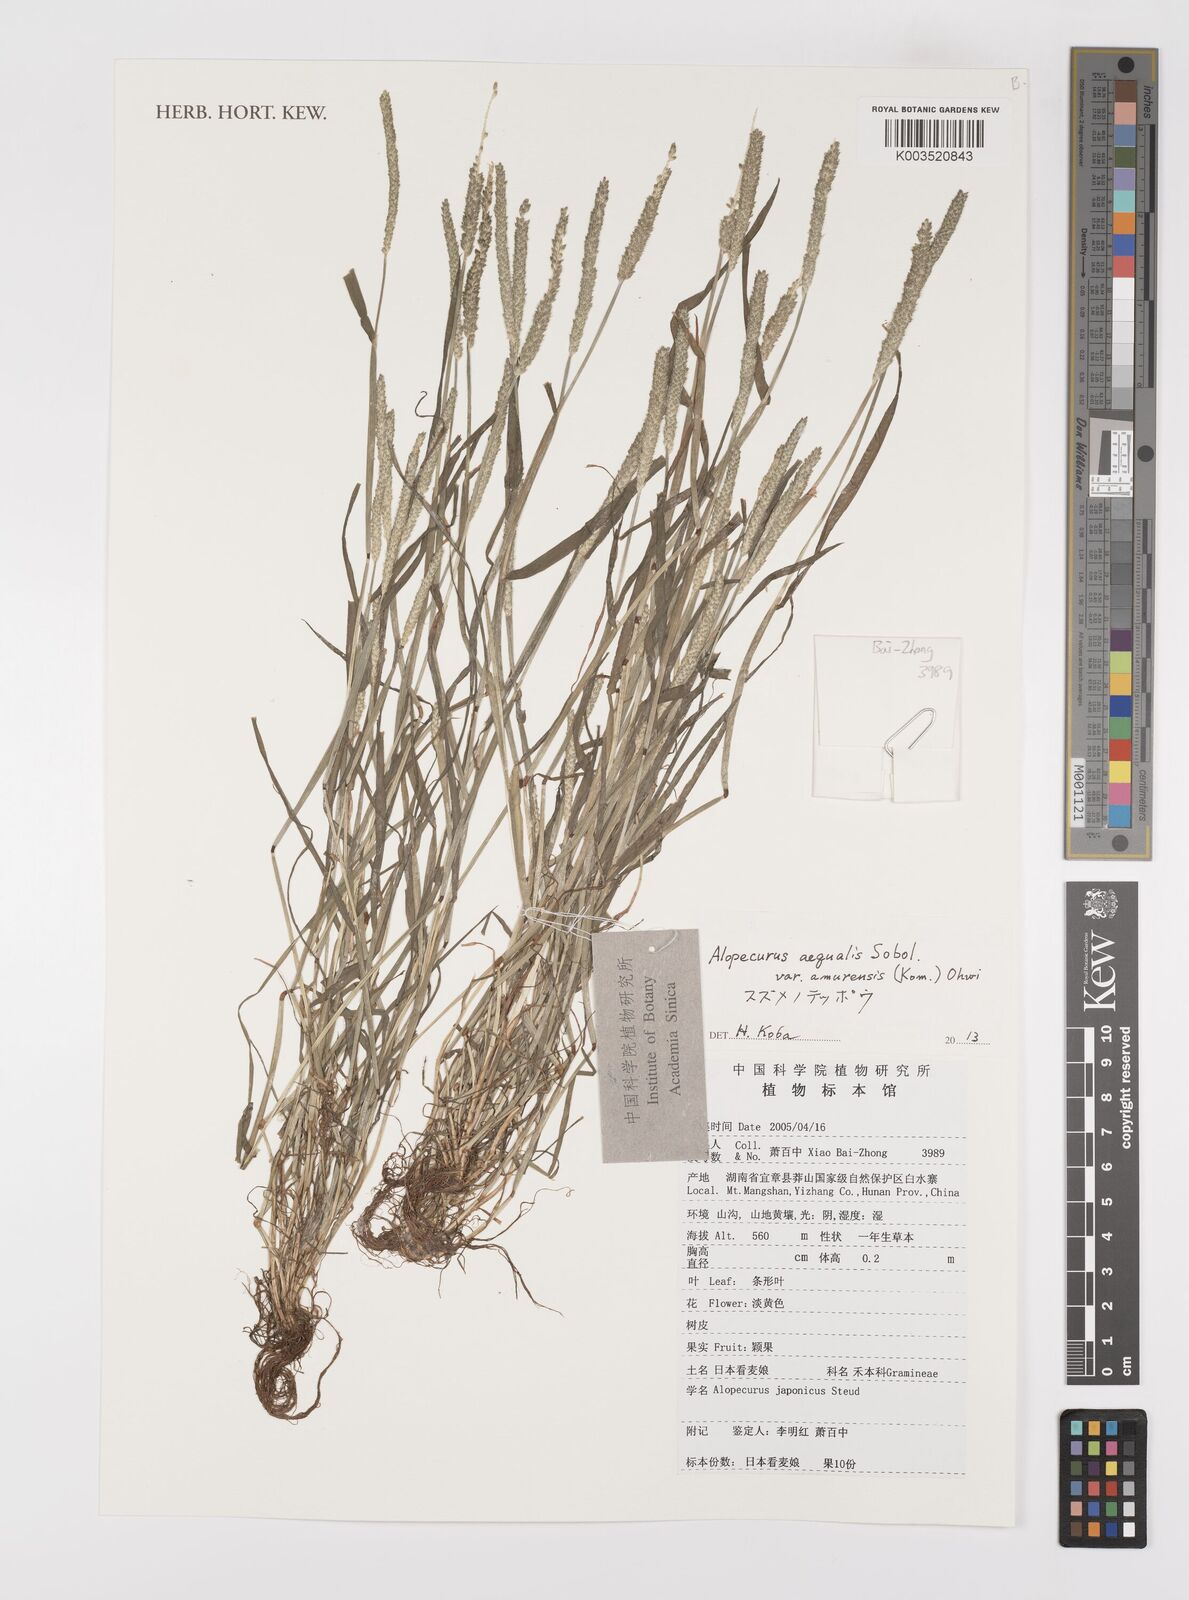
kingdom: Plantae
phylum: Tracheophyta
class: Liliopsida
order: Poales
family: Poaceae
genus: Alopecurus
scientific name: Alopecurus aequalis
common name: Orange foxtail
